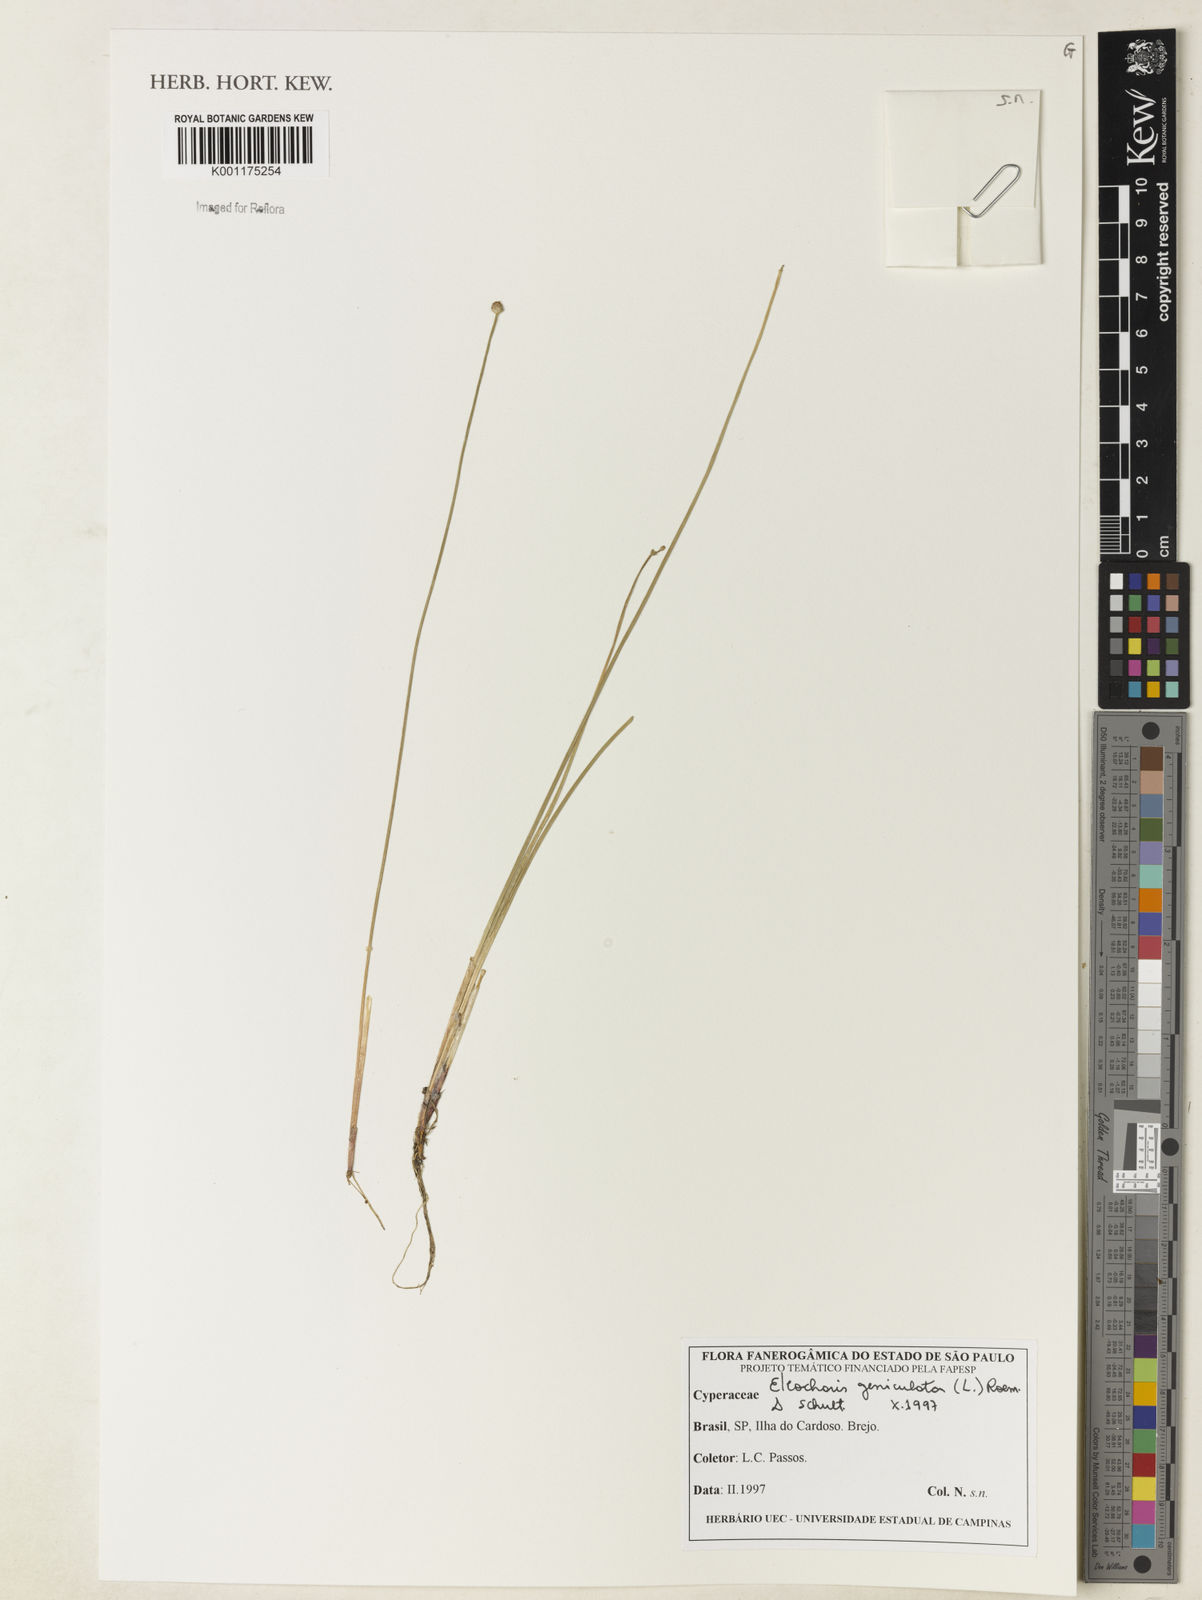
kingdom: Plantae
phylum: Tracheophyta
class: Liliopsida
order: Poales
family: Cyperaceae
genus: Eleocharis
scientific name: Eleocharis geniculata
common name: Canada spikesedge
